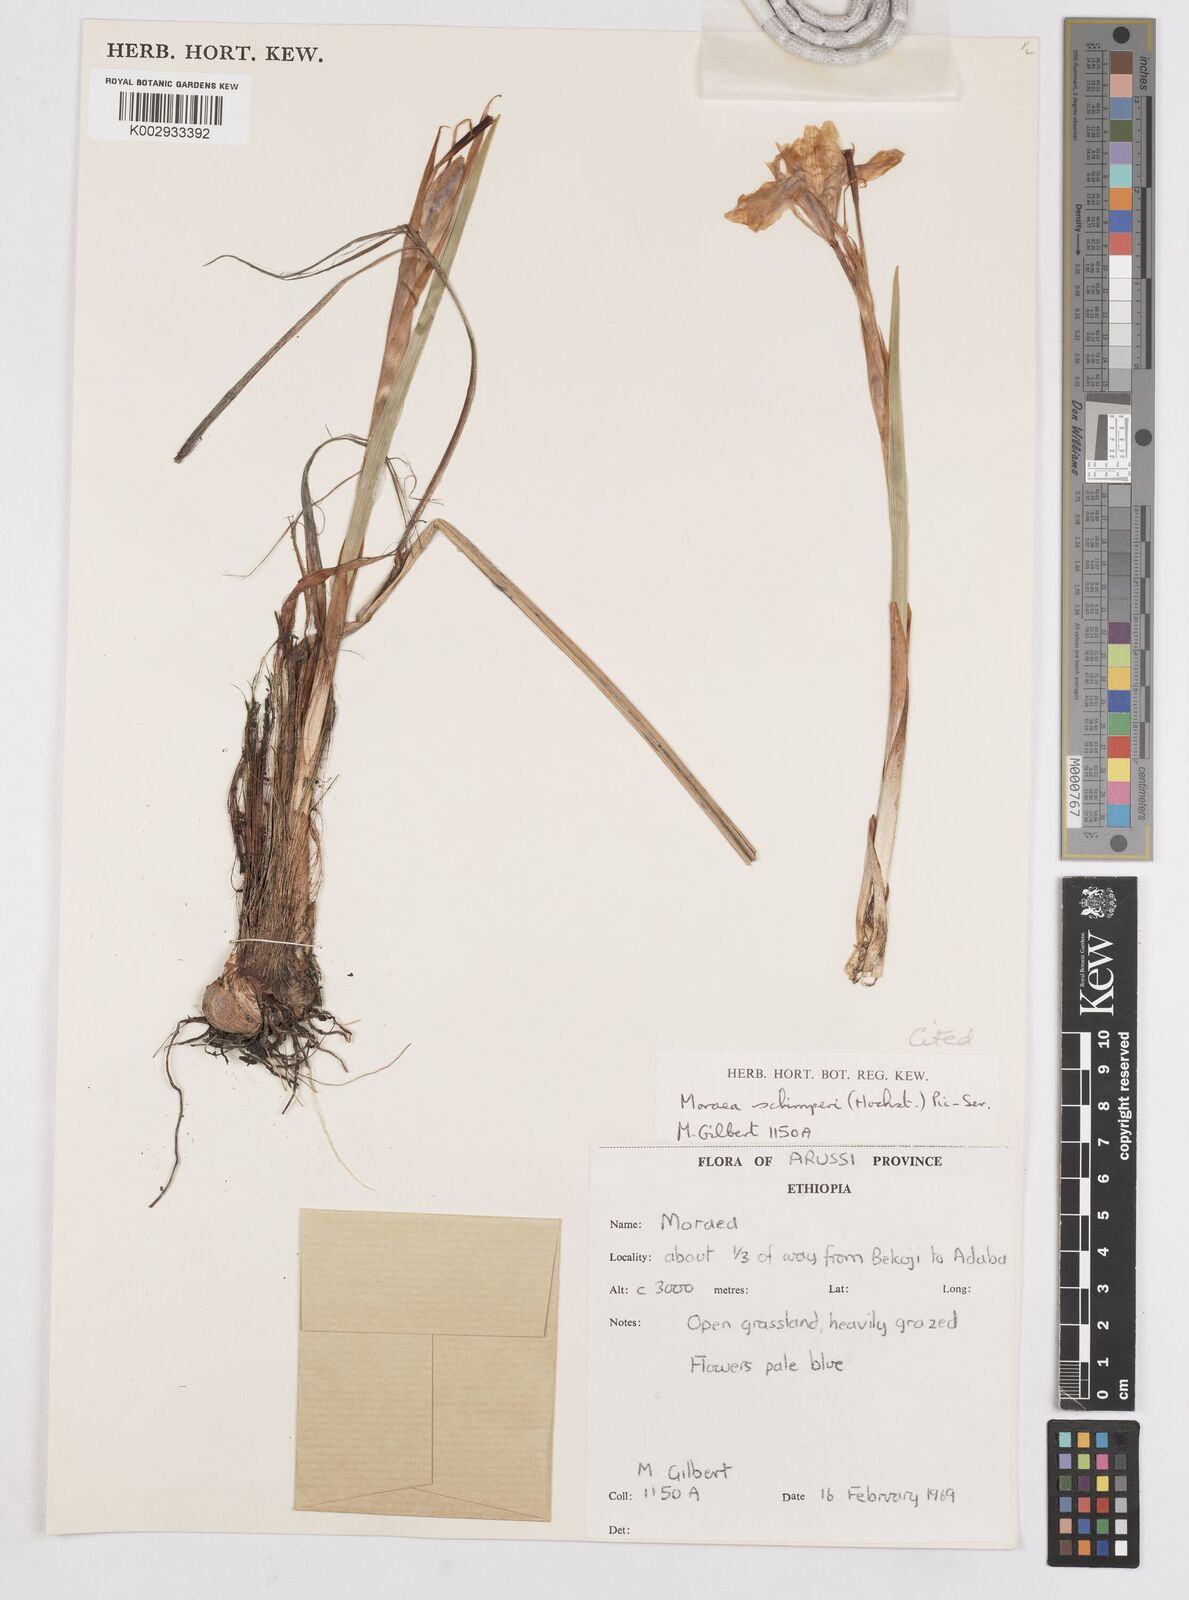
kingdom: Plantae
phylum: Tracheophyta
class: Liliopsida
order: Asparagales
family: Iridaceae
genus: Moraea
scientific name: Moraea schimperi
